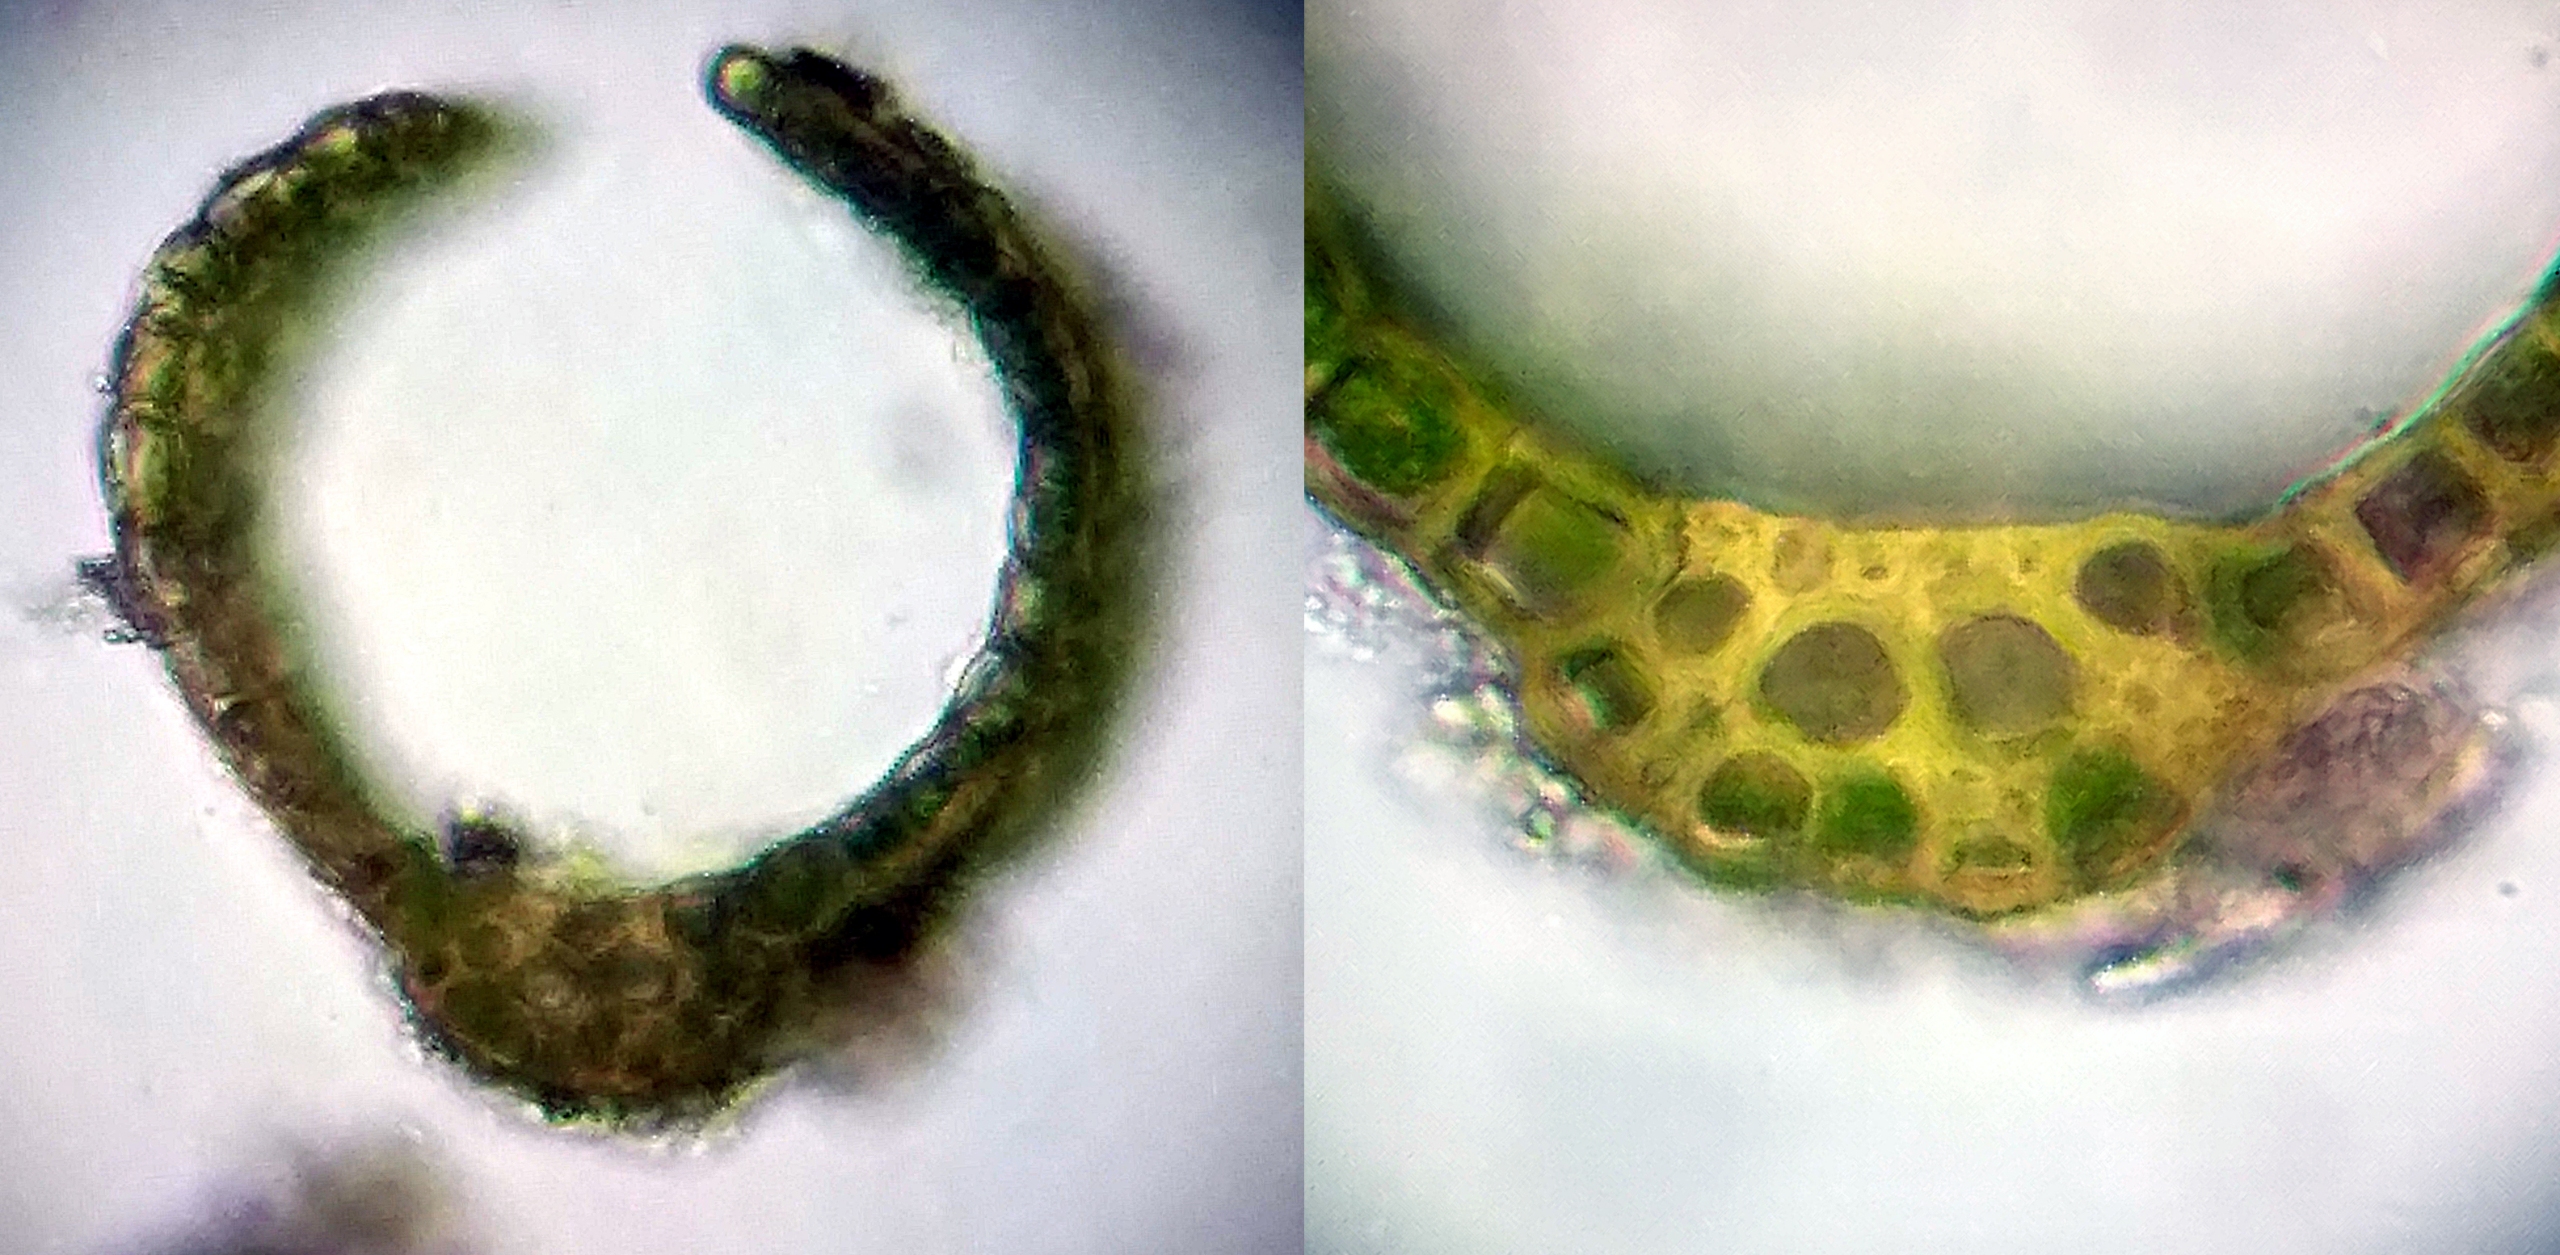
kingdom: Plantae
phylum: Bryophyta
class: Bryopsida
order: Dicranales
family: Dicranaceae
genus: Orthodicranum
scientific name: Orthodicranum flagellare
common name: Mangegrenet tyndvinge
